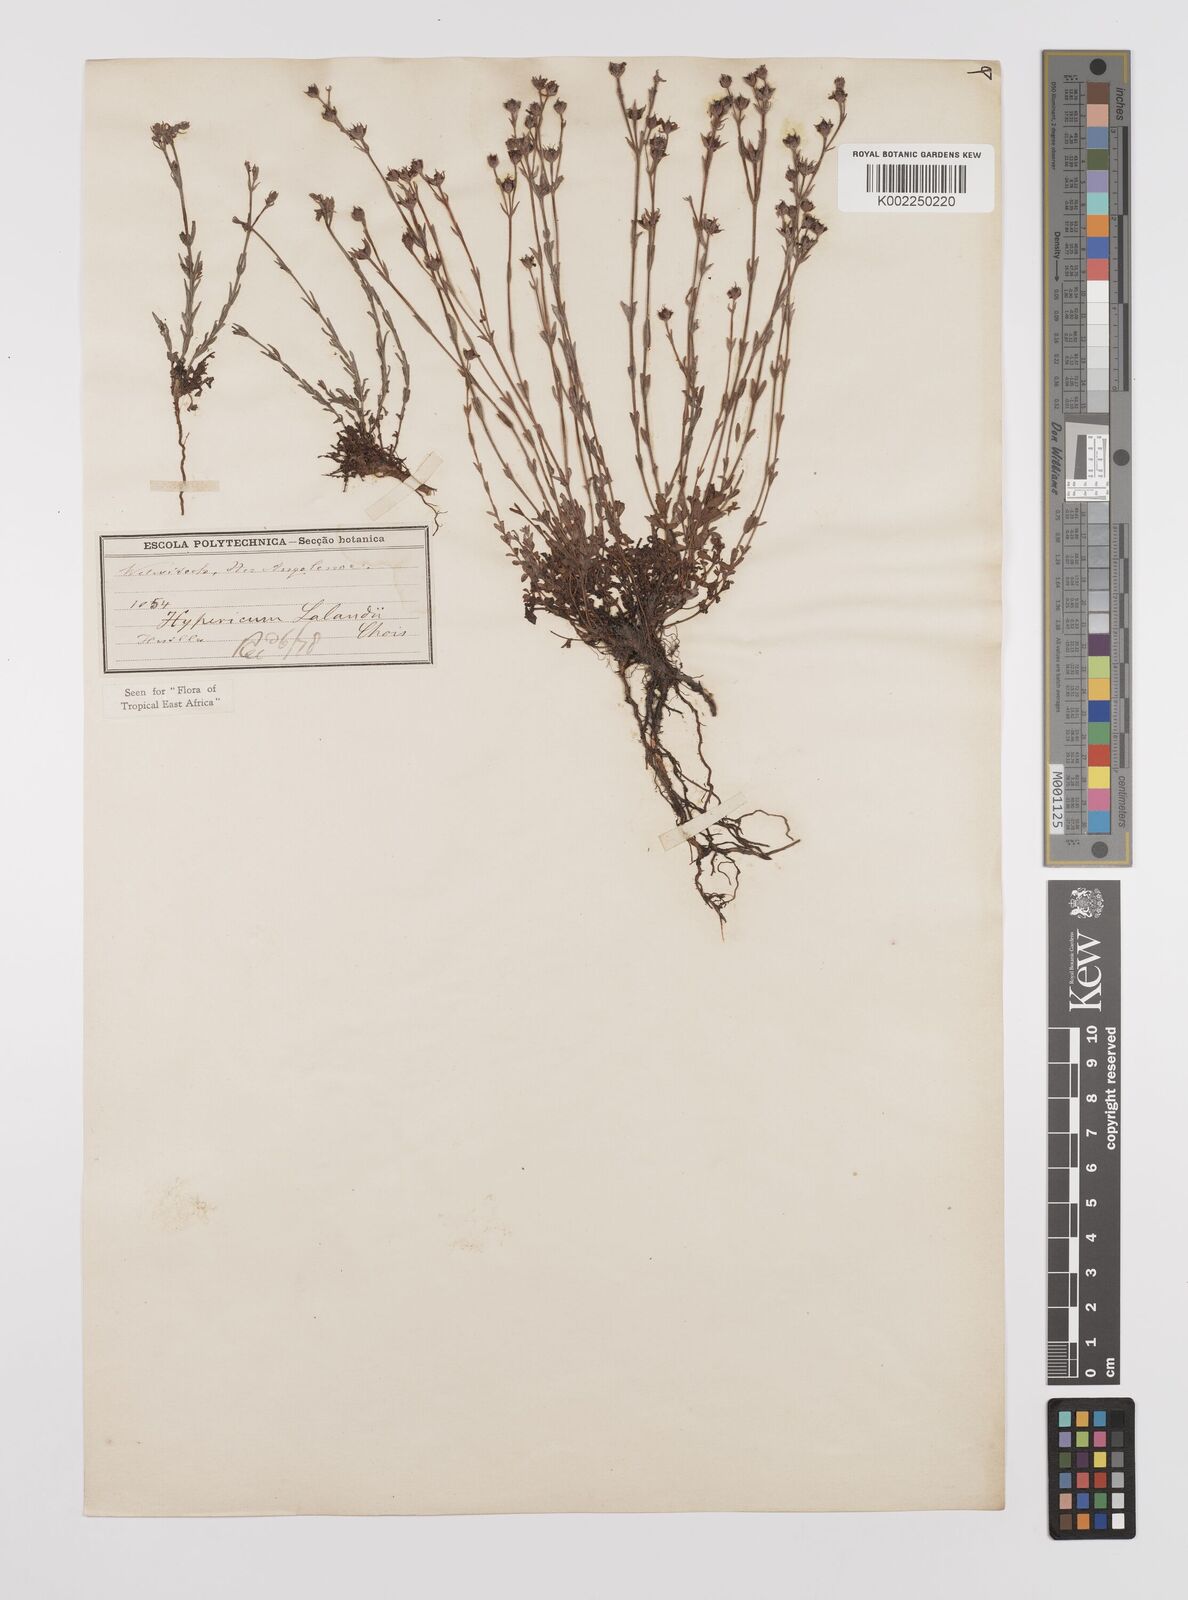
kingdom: Plantae
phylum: Tracheophyta
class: Magnoliopsida
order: Malpighiales
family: Hypericaceae
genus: Hypericum
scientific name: Hypericum lalandii
